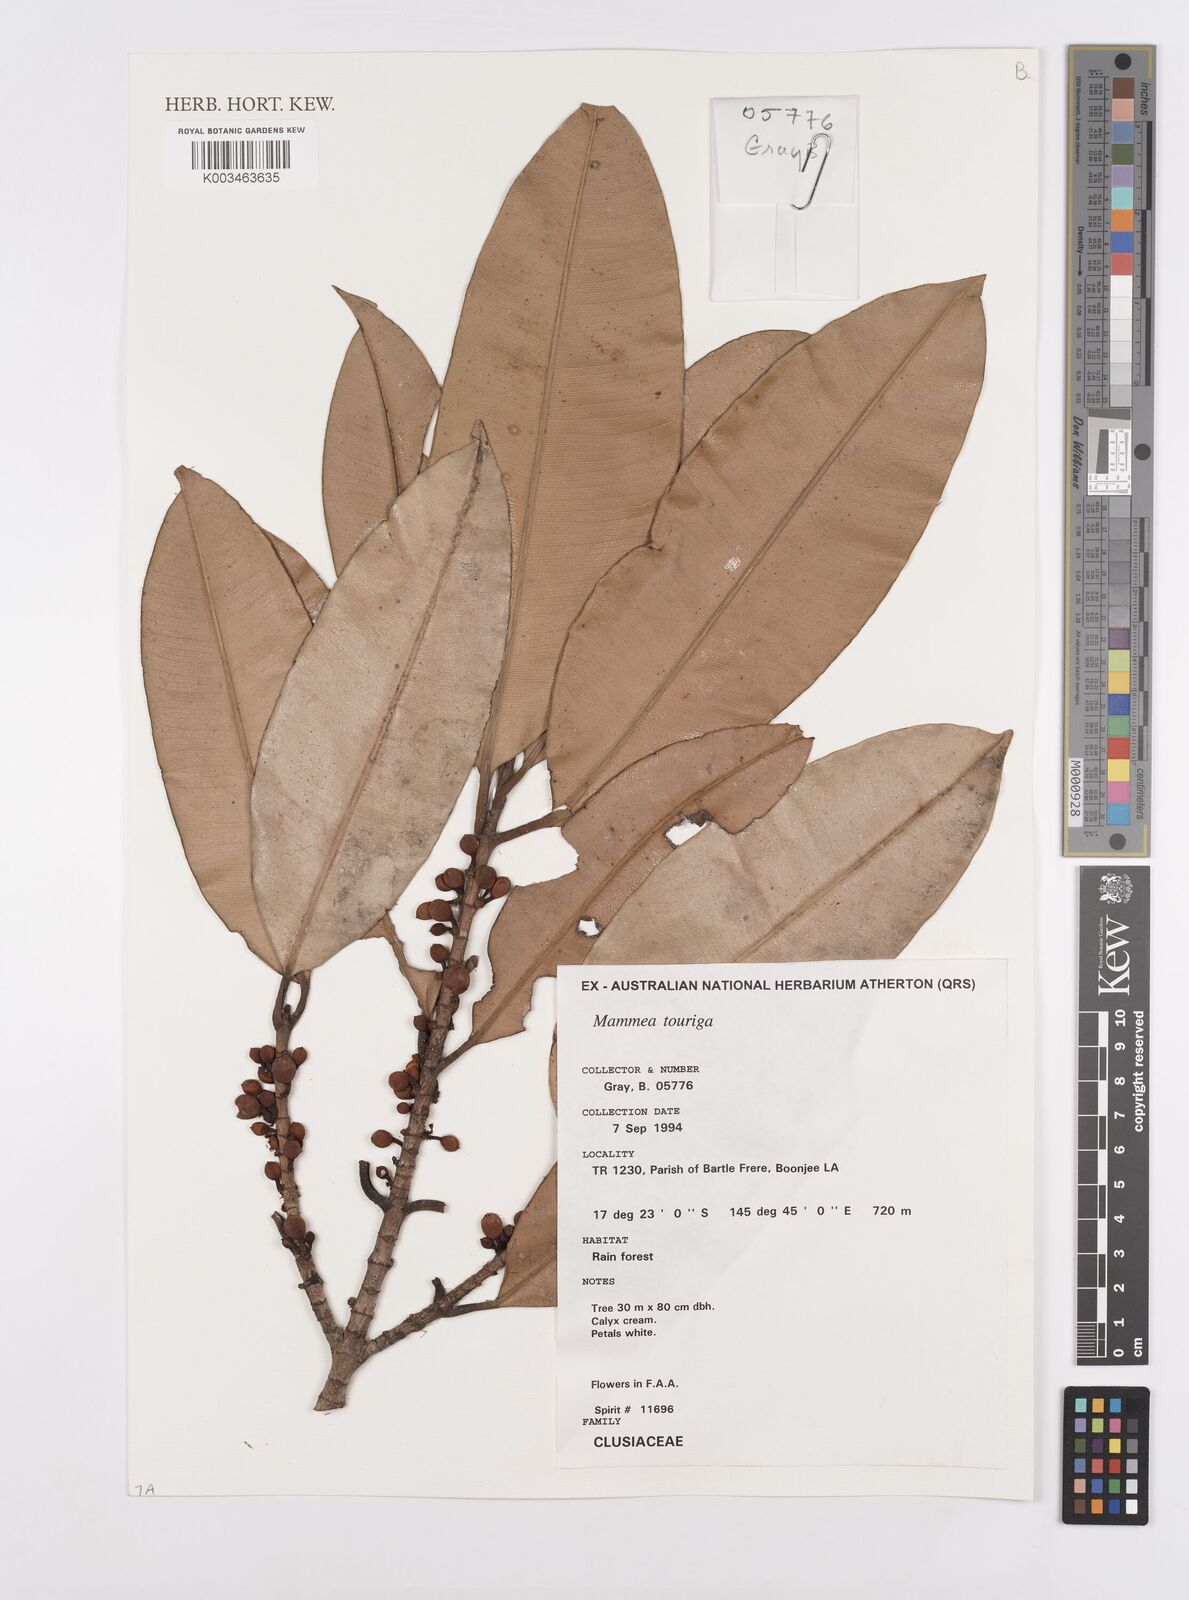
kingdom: Plantae
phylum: Tracheophyta
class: Magnoliopsida
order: Malpighiales
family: Calophyllaceae
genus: Mammea
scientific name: Mammea touriga
